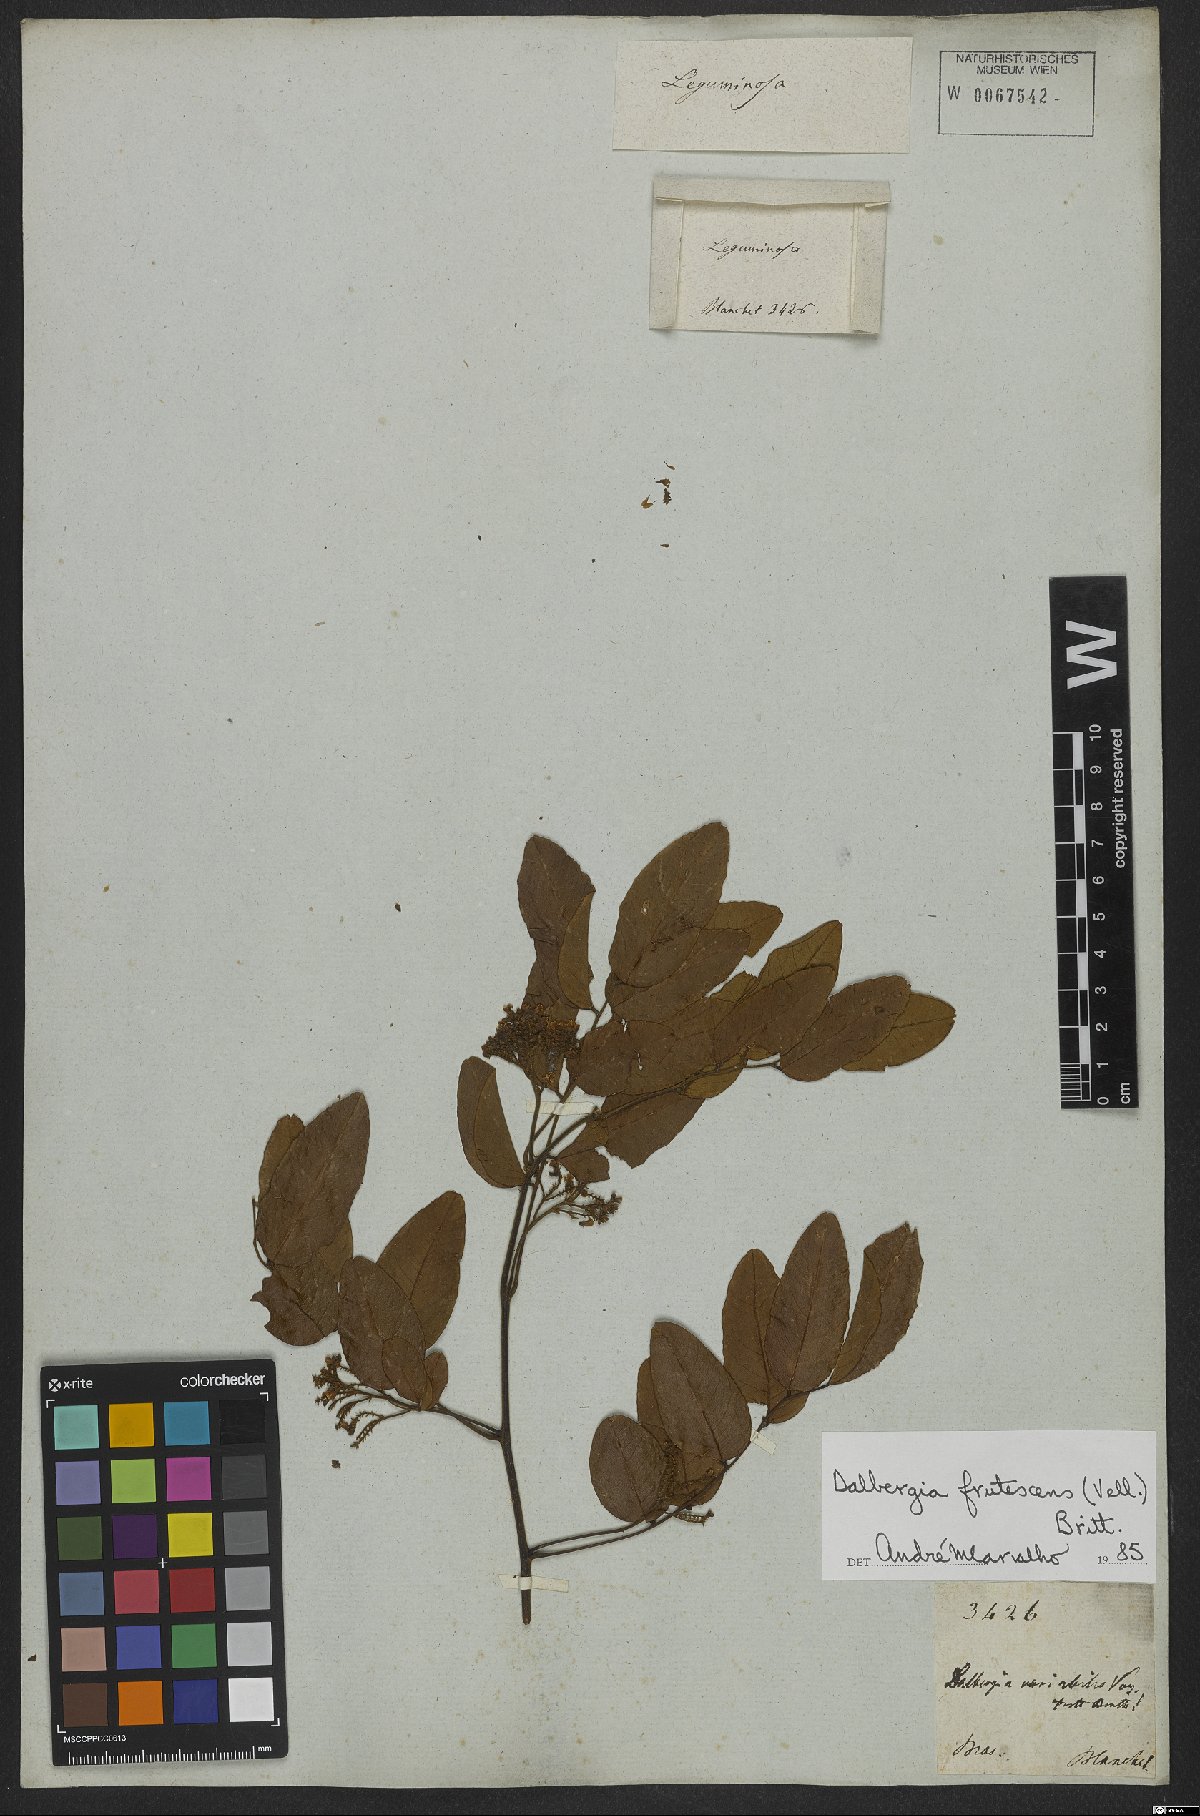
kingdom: Plantae
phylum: Tracheophyta
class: Magnoliopsida
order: Fabales
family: Fabaceae
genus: Dalbergia
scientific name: Dalbergia frutescens
